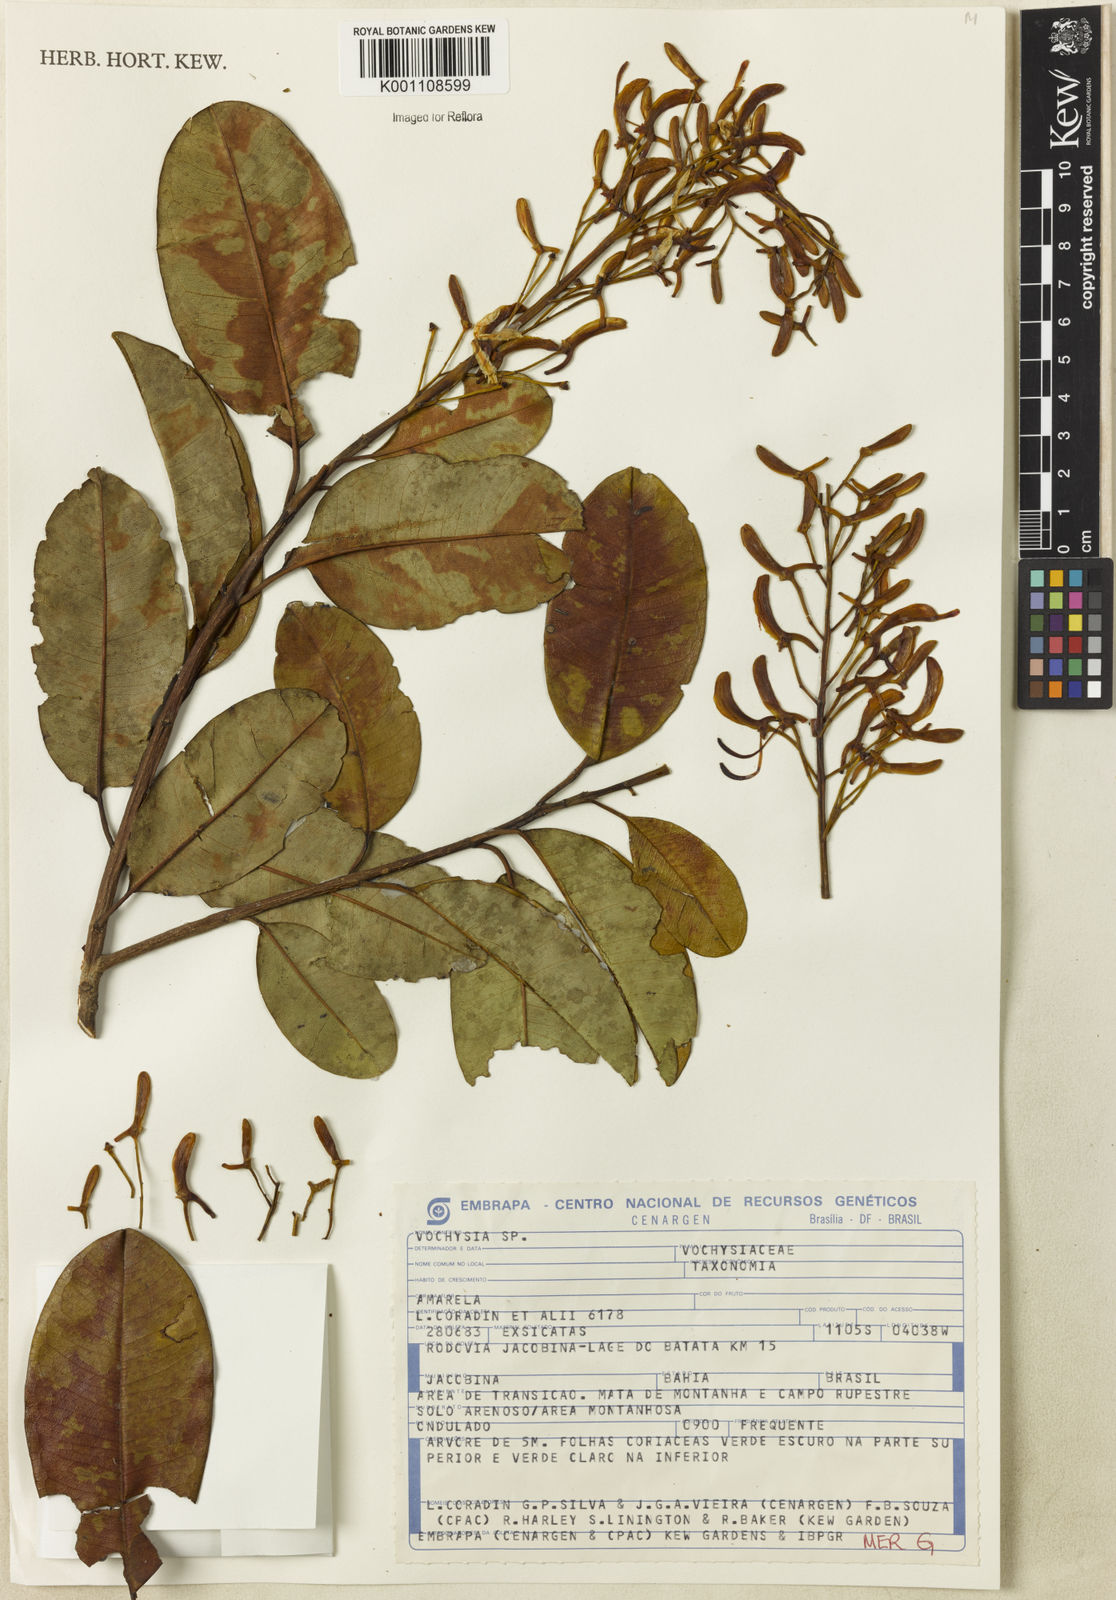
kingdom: Plantae
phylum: Tracheophyta
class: Magnoliopsida
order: Myrtales
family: Vochysiaceae
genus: Vochysia
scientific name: Vochysia
